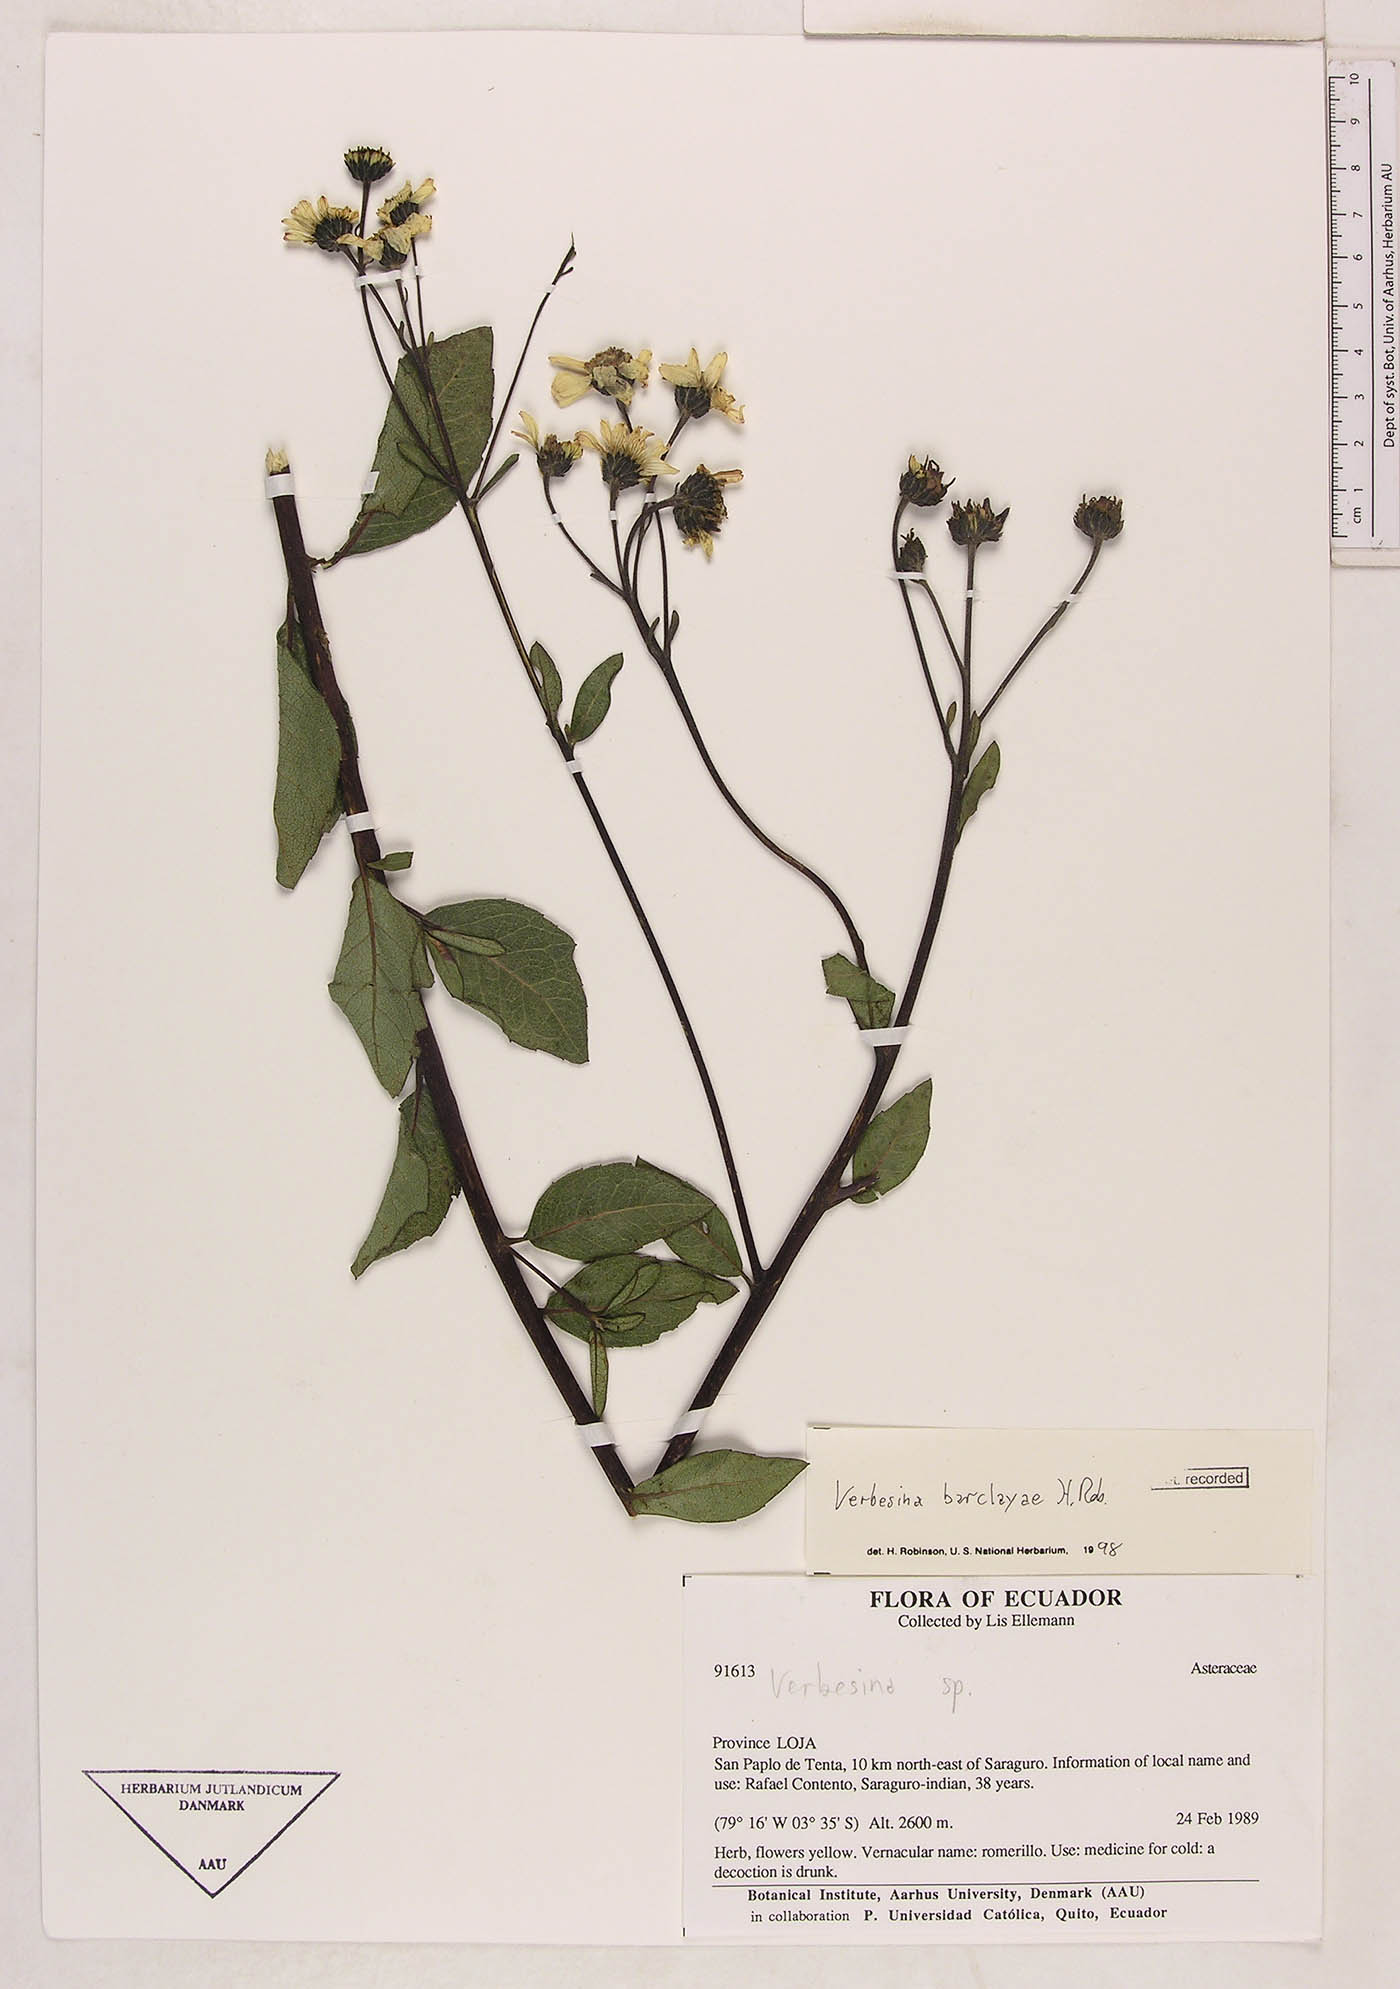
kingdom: Plantae
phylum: Tracheophyta
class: Magnoliopsida
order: Asterales
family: Asteraceae
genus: Verbesina
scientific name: Verbesina barclayae
